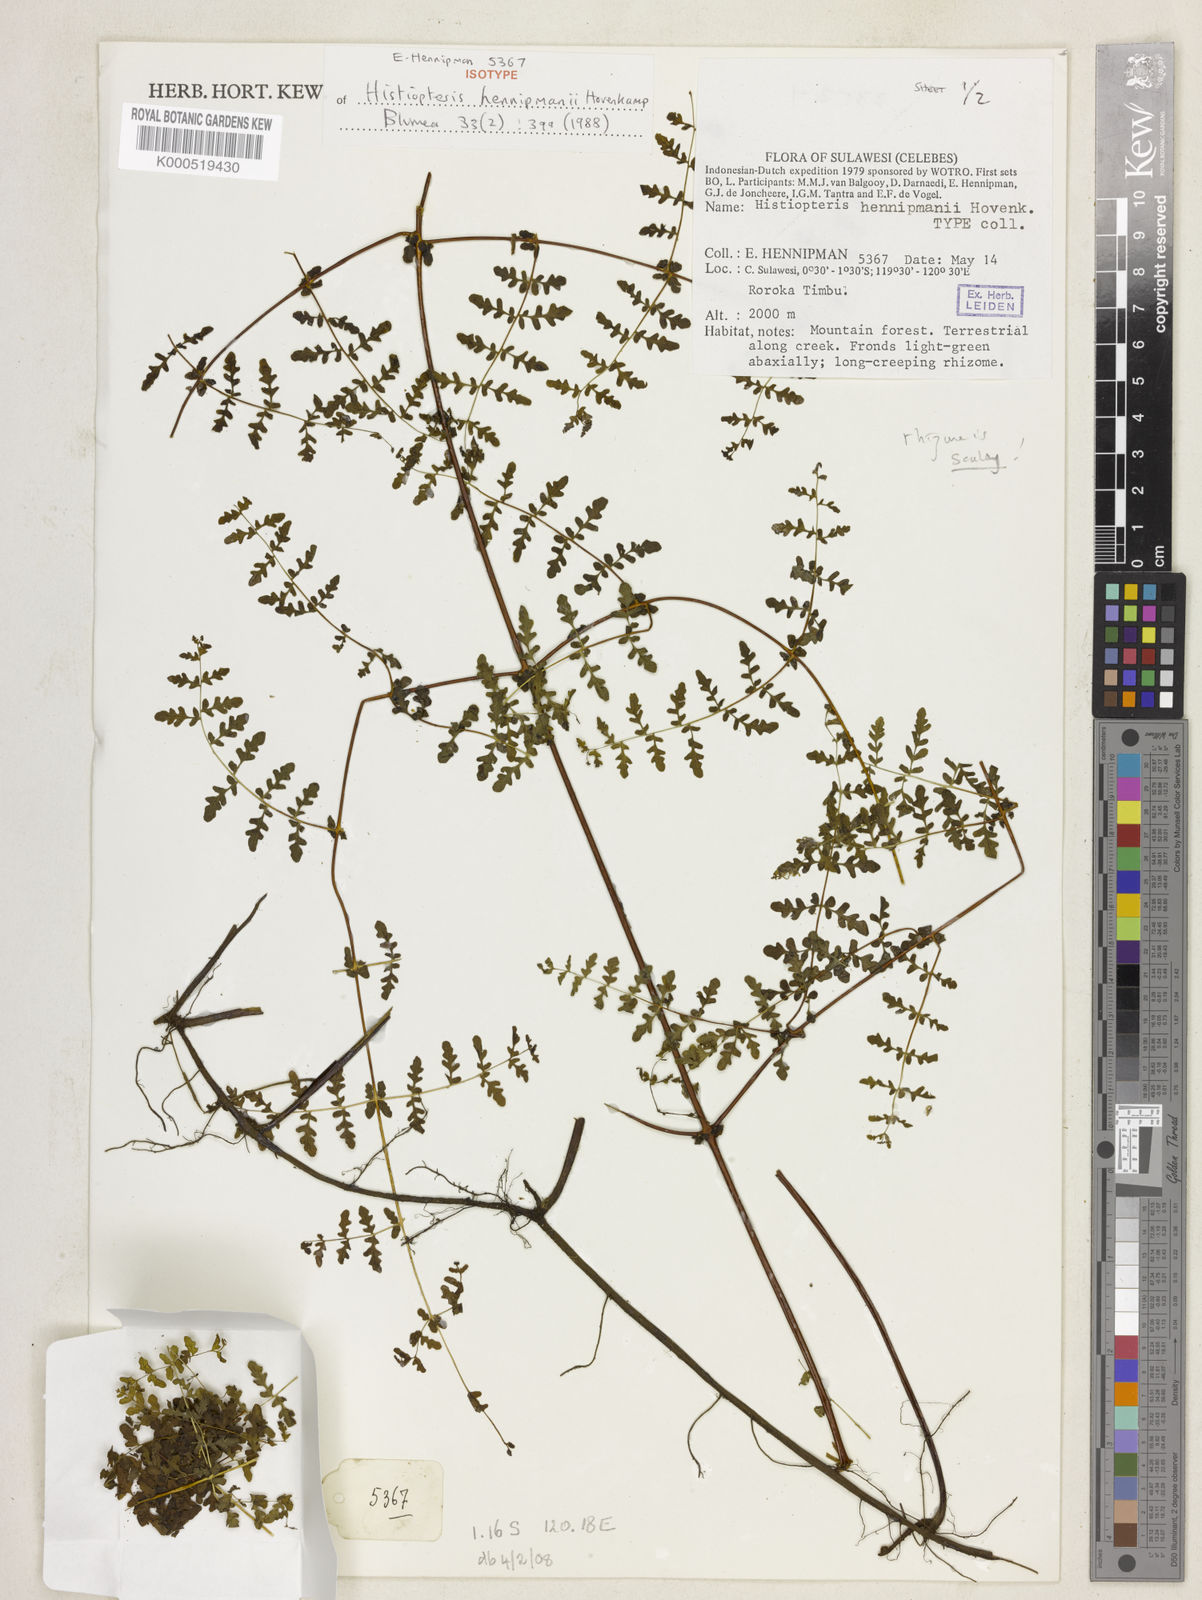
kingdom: Plantae
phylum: Tracheophyta
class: Polypodiopsida
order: Polypodiales
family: Dennstaedtiaceae
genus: Histiopteris
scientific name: Histiopteris hennipmanii
